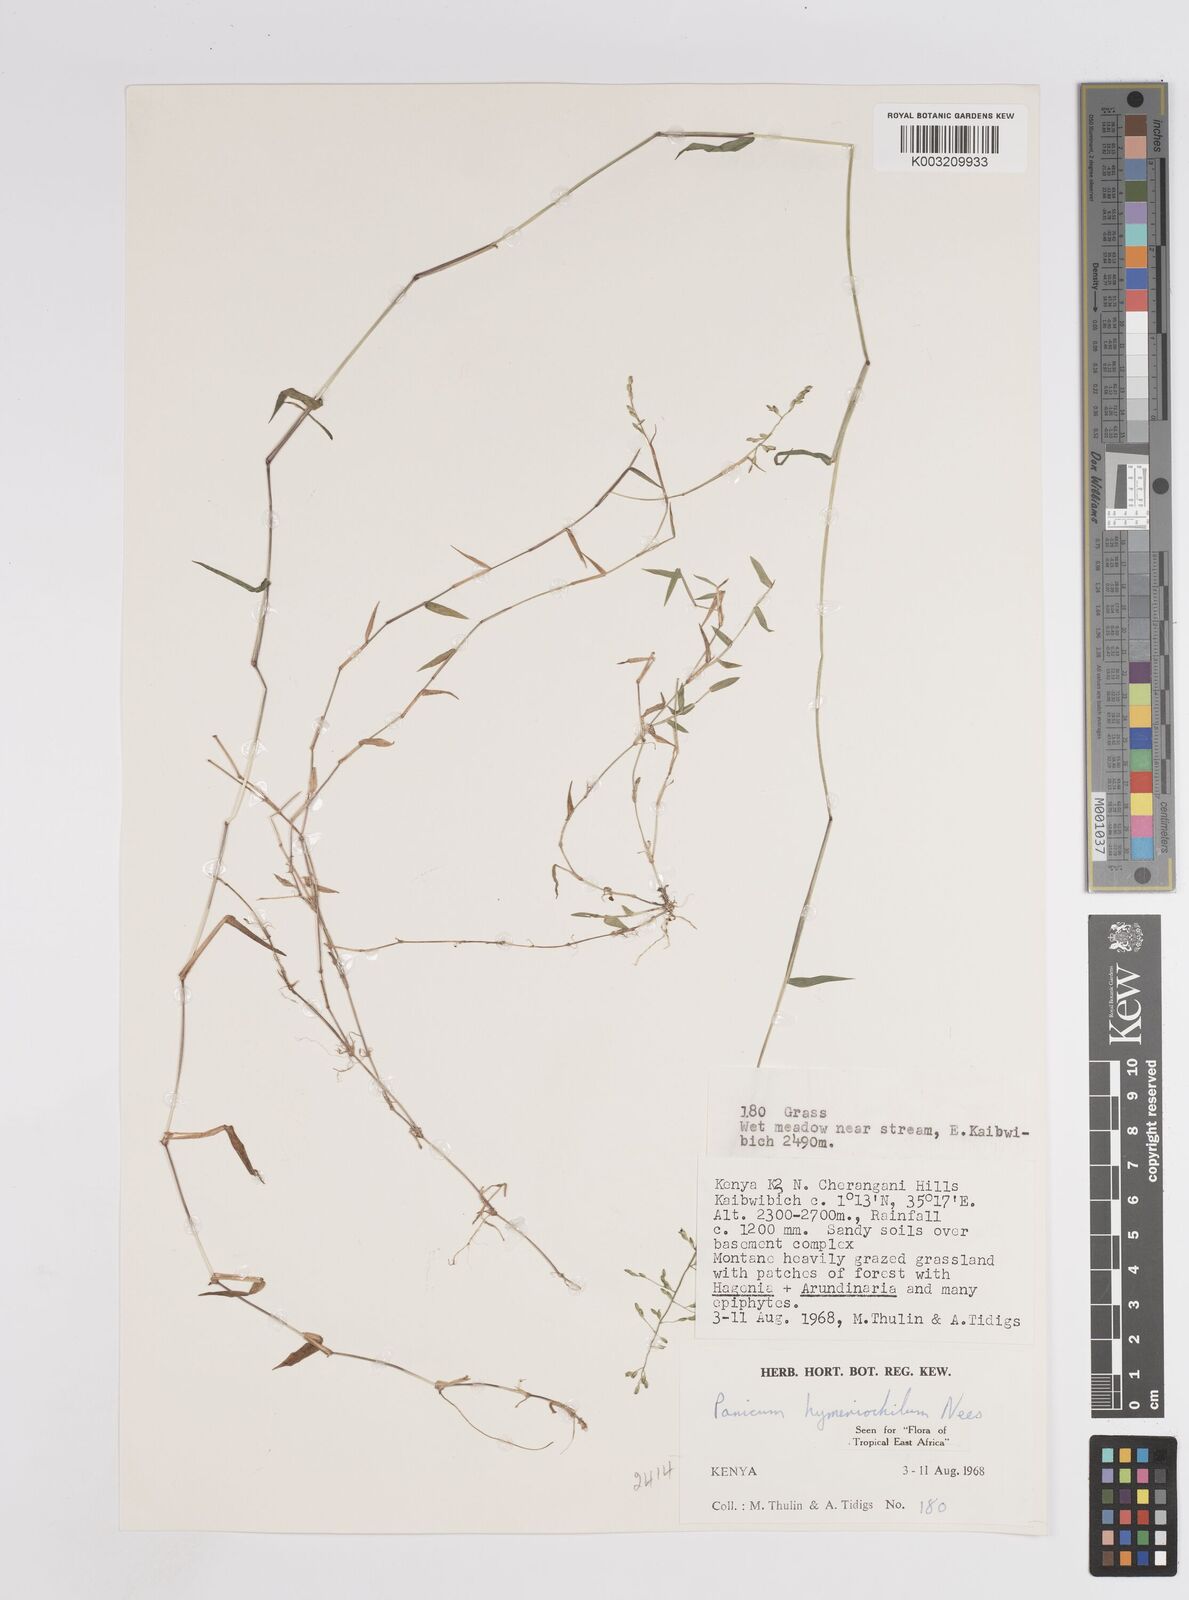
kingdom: Plantae
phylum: Tracheophyta
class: Liliopsida
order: Poales
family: Poaceae
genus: Adenochloa
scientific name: Adenochloa hymeniochila
